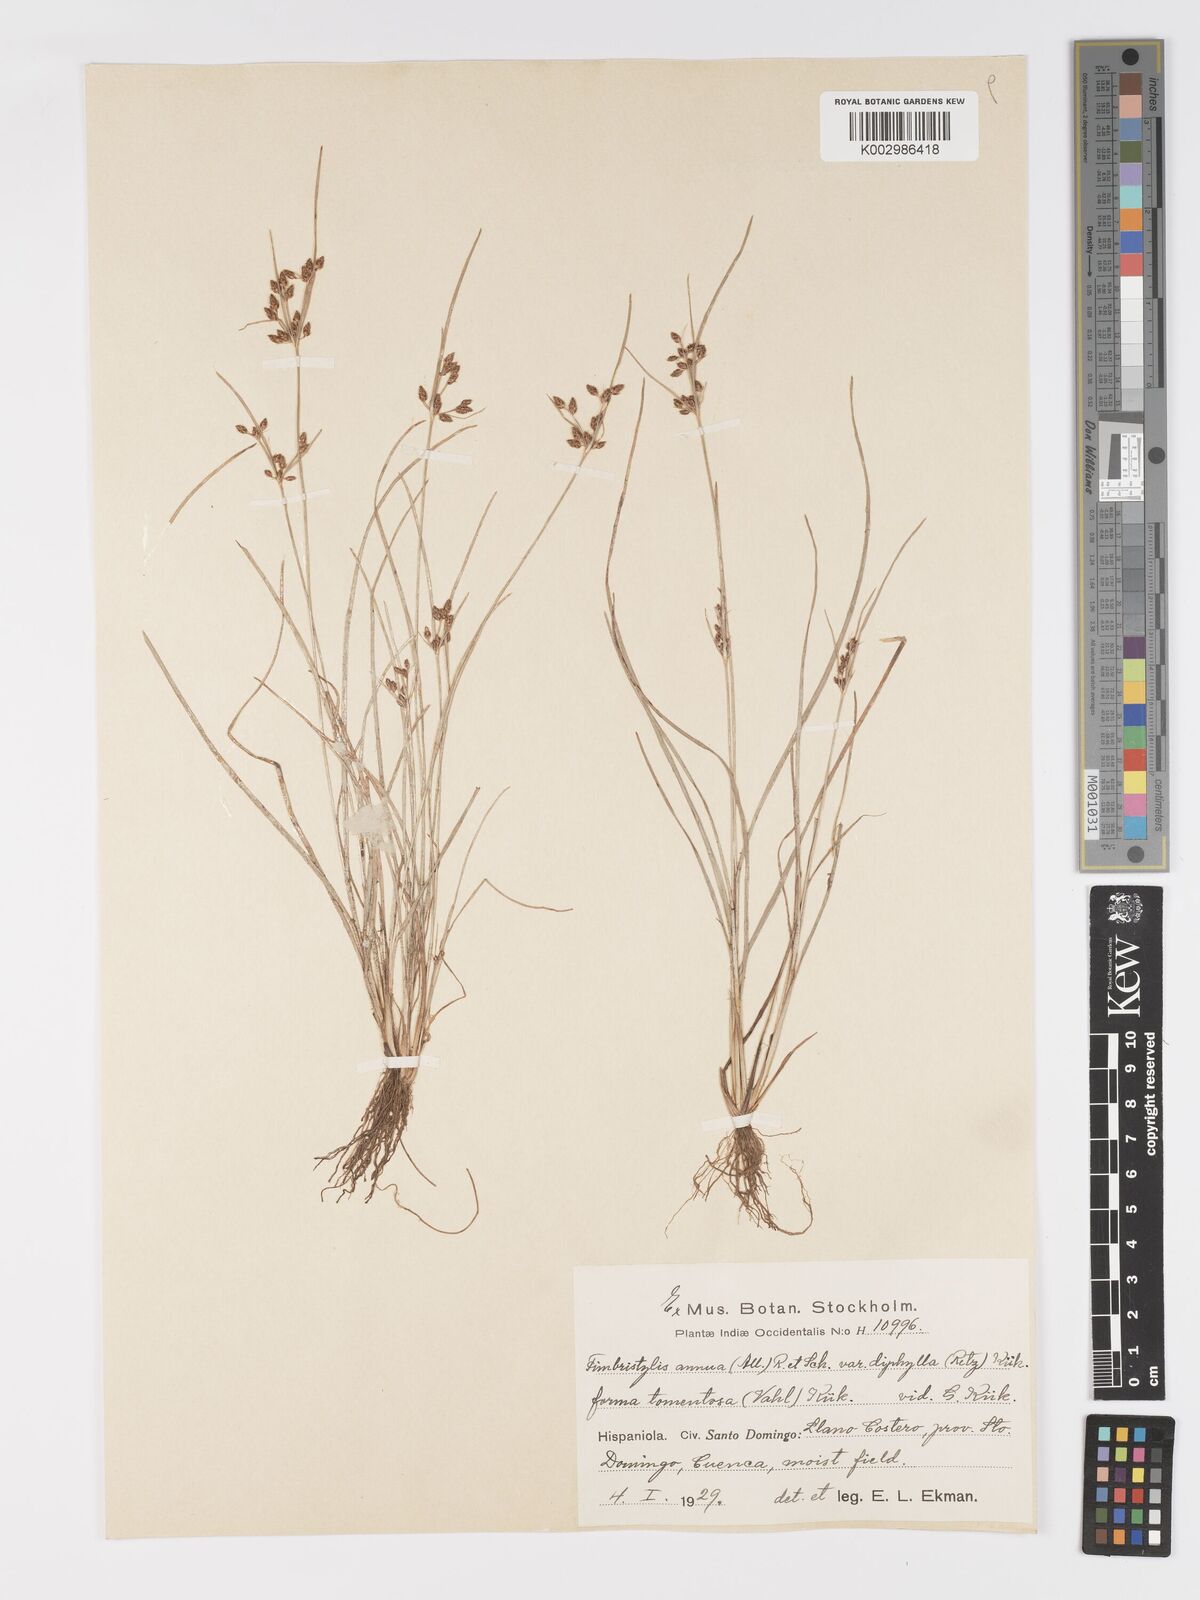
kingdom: Plantae
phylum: Tracheophyta
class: Liliopsida
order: Poales
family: Cyperaceae
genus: Fimbristylis
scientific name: Fimbristylis dichotoma
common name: Forked fimbry
